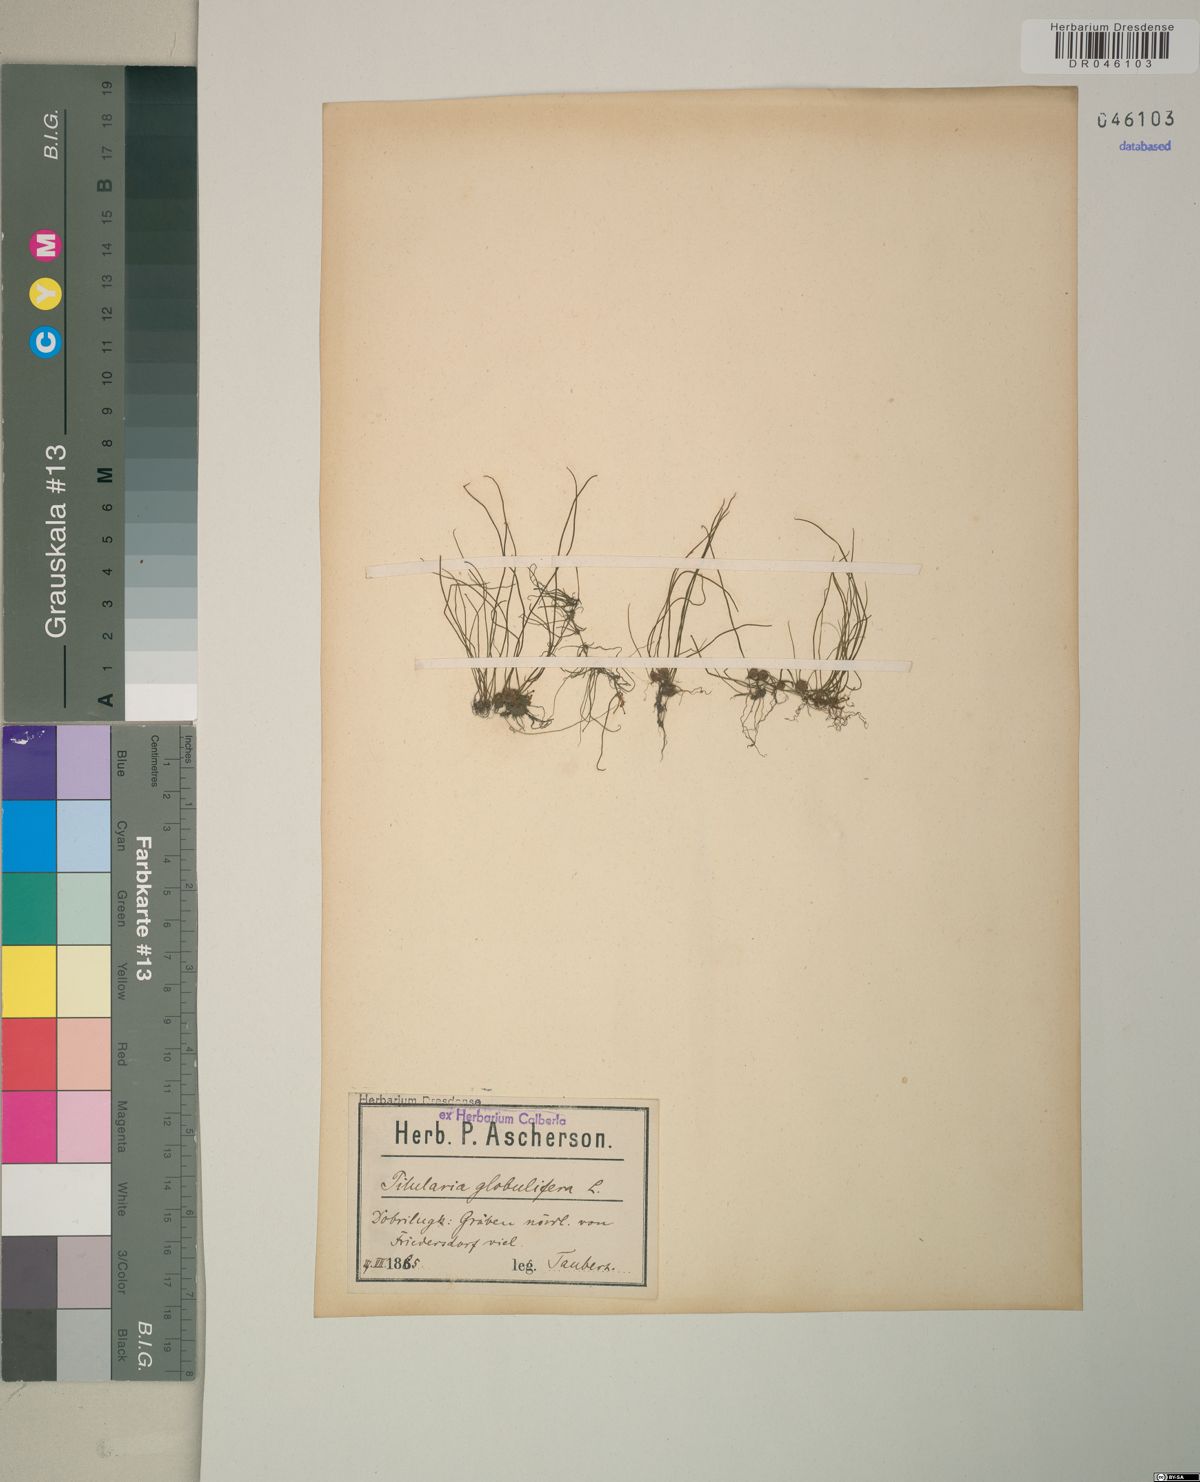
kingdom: Plantae
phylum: Tracheophyta
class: Polypodiopsida
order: Salviniales
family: Marsileaceae
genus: Pilularia
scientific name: Pilularia globulifera
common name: Pillwort
